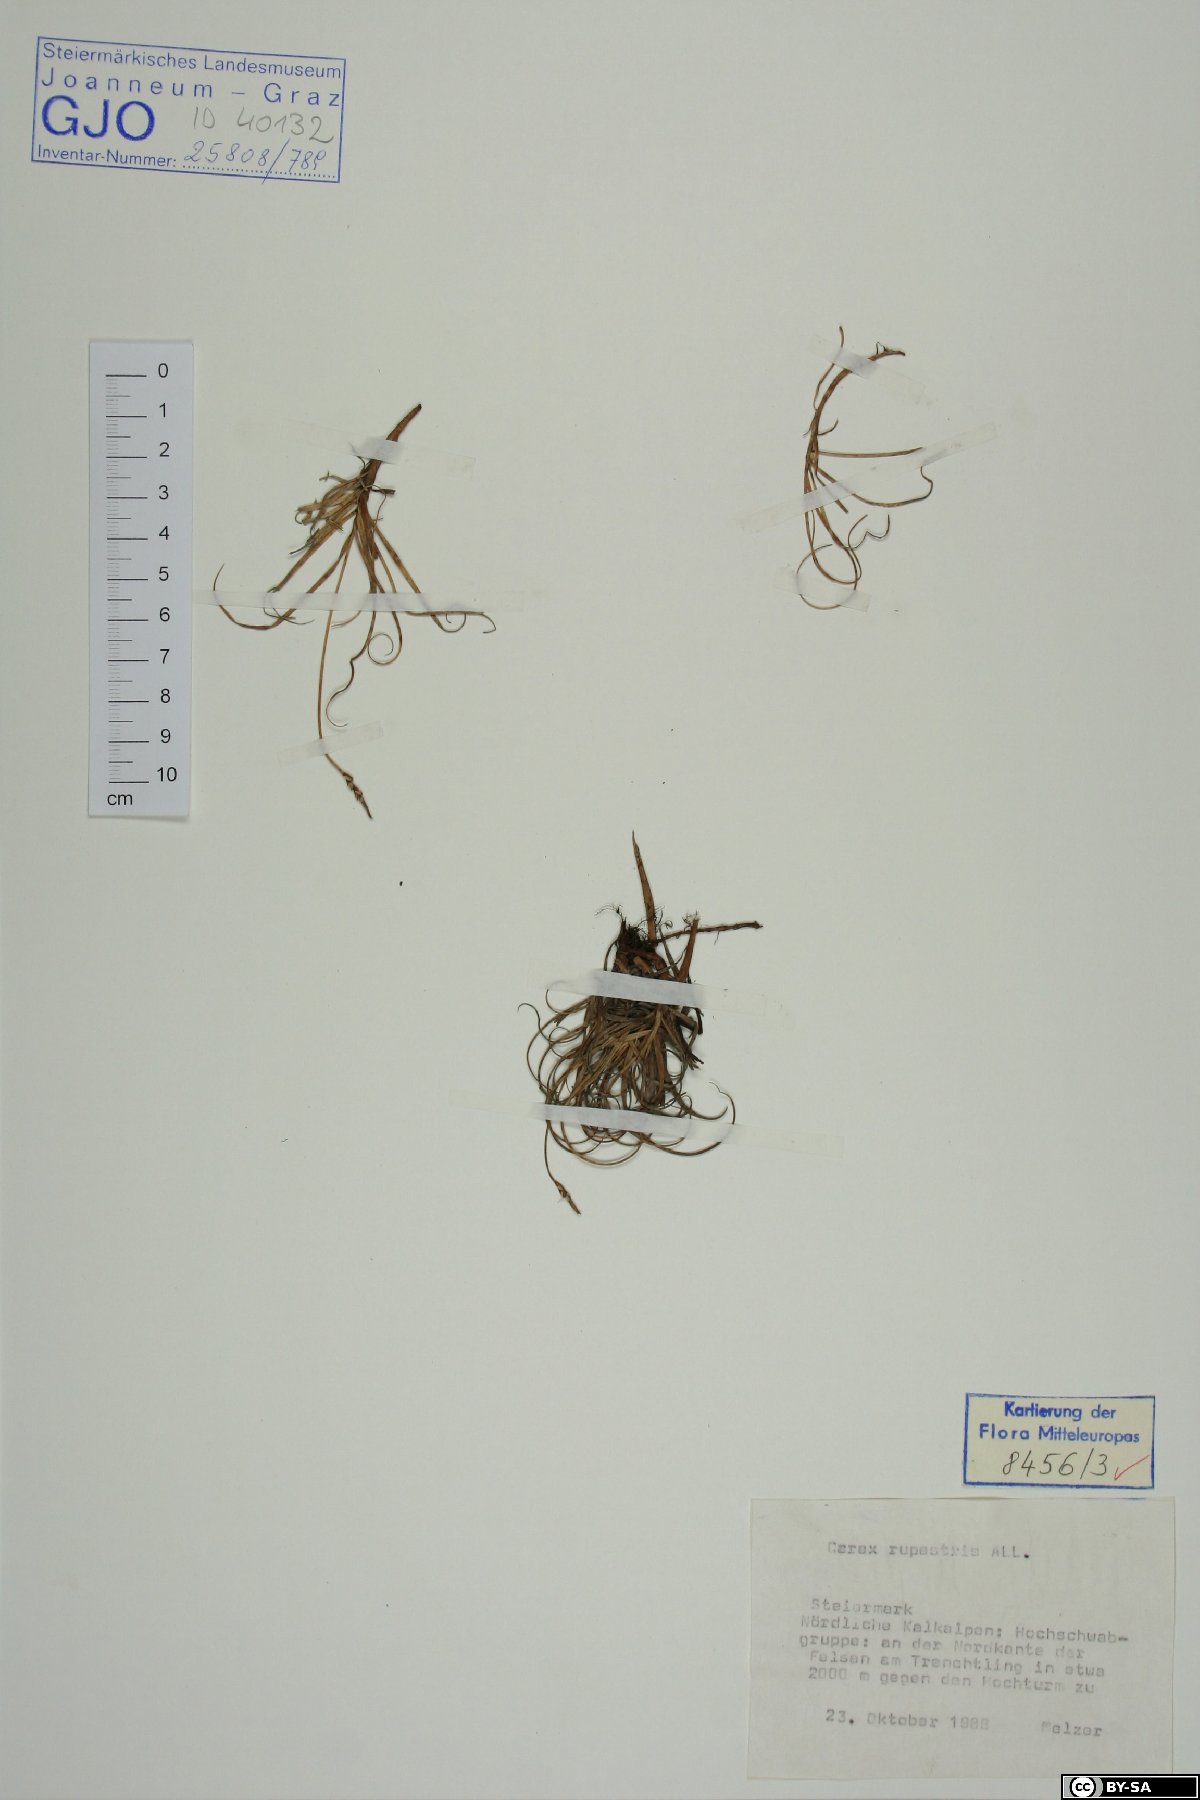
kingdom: Plantae
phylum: Tracheophyta
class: Liliopsida
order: Poales
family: Cyperaceae
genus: Carex
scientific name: Carex rupestris
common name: Rock sedge
